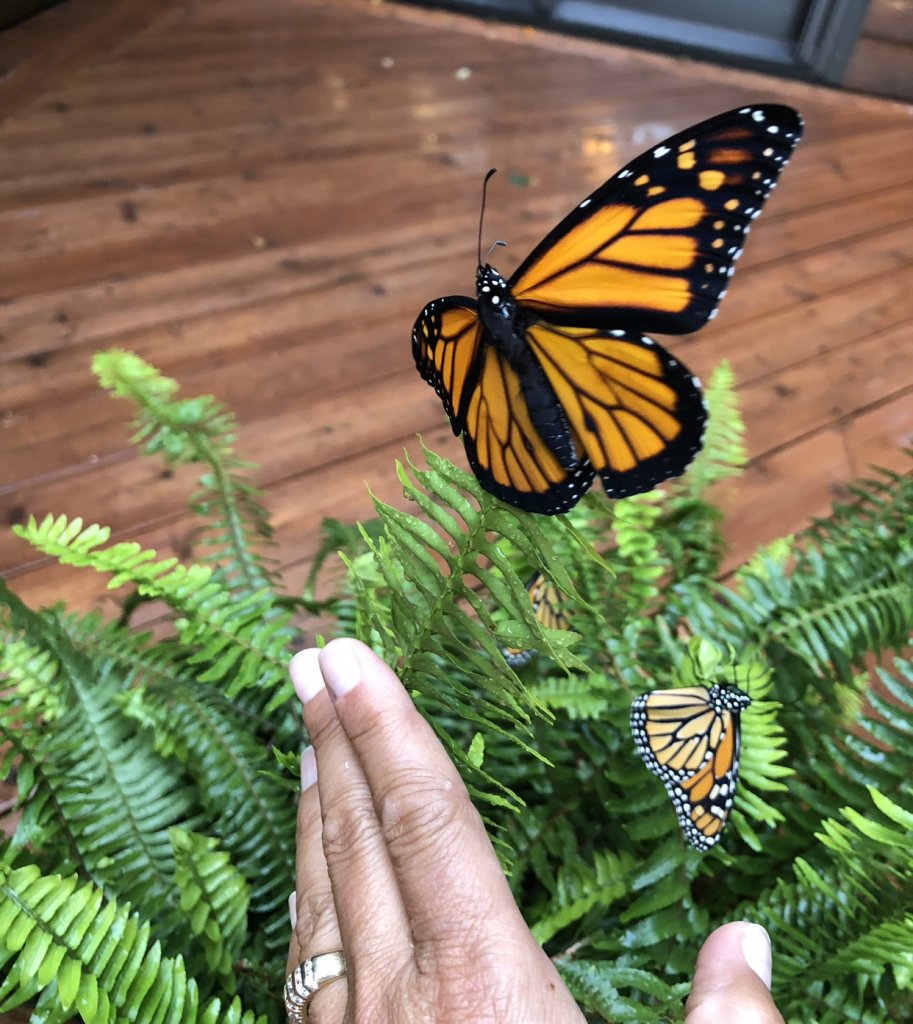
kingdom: Animalia
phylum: Arthropoda
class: Insecta
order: Lepidoptera
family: Nymphalidae
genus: Danaus
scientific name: Danaus plexippus
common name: Monarch
